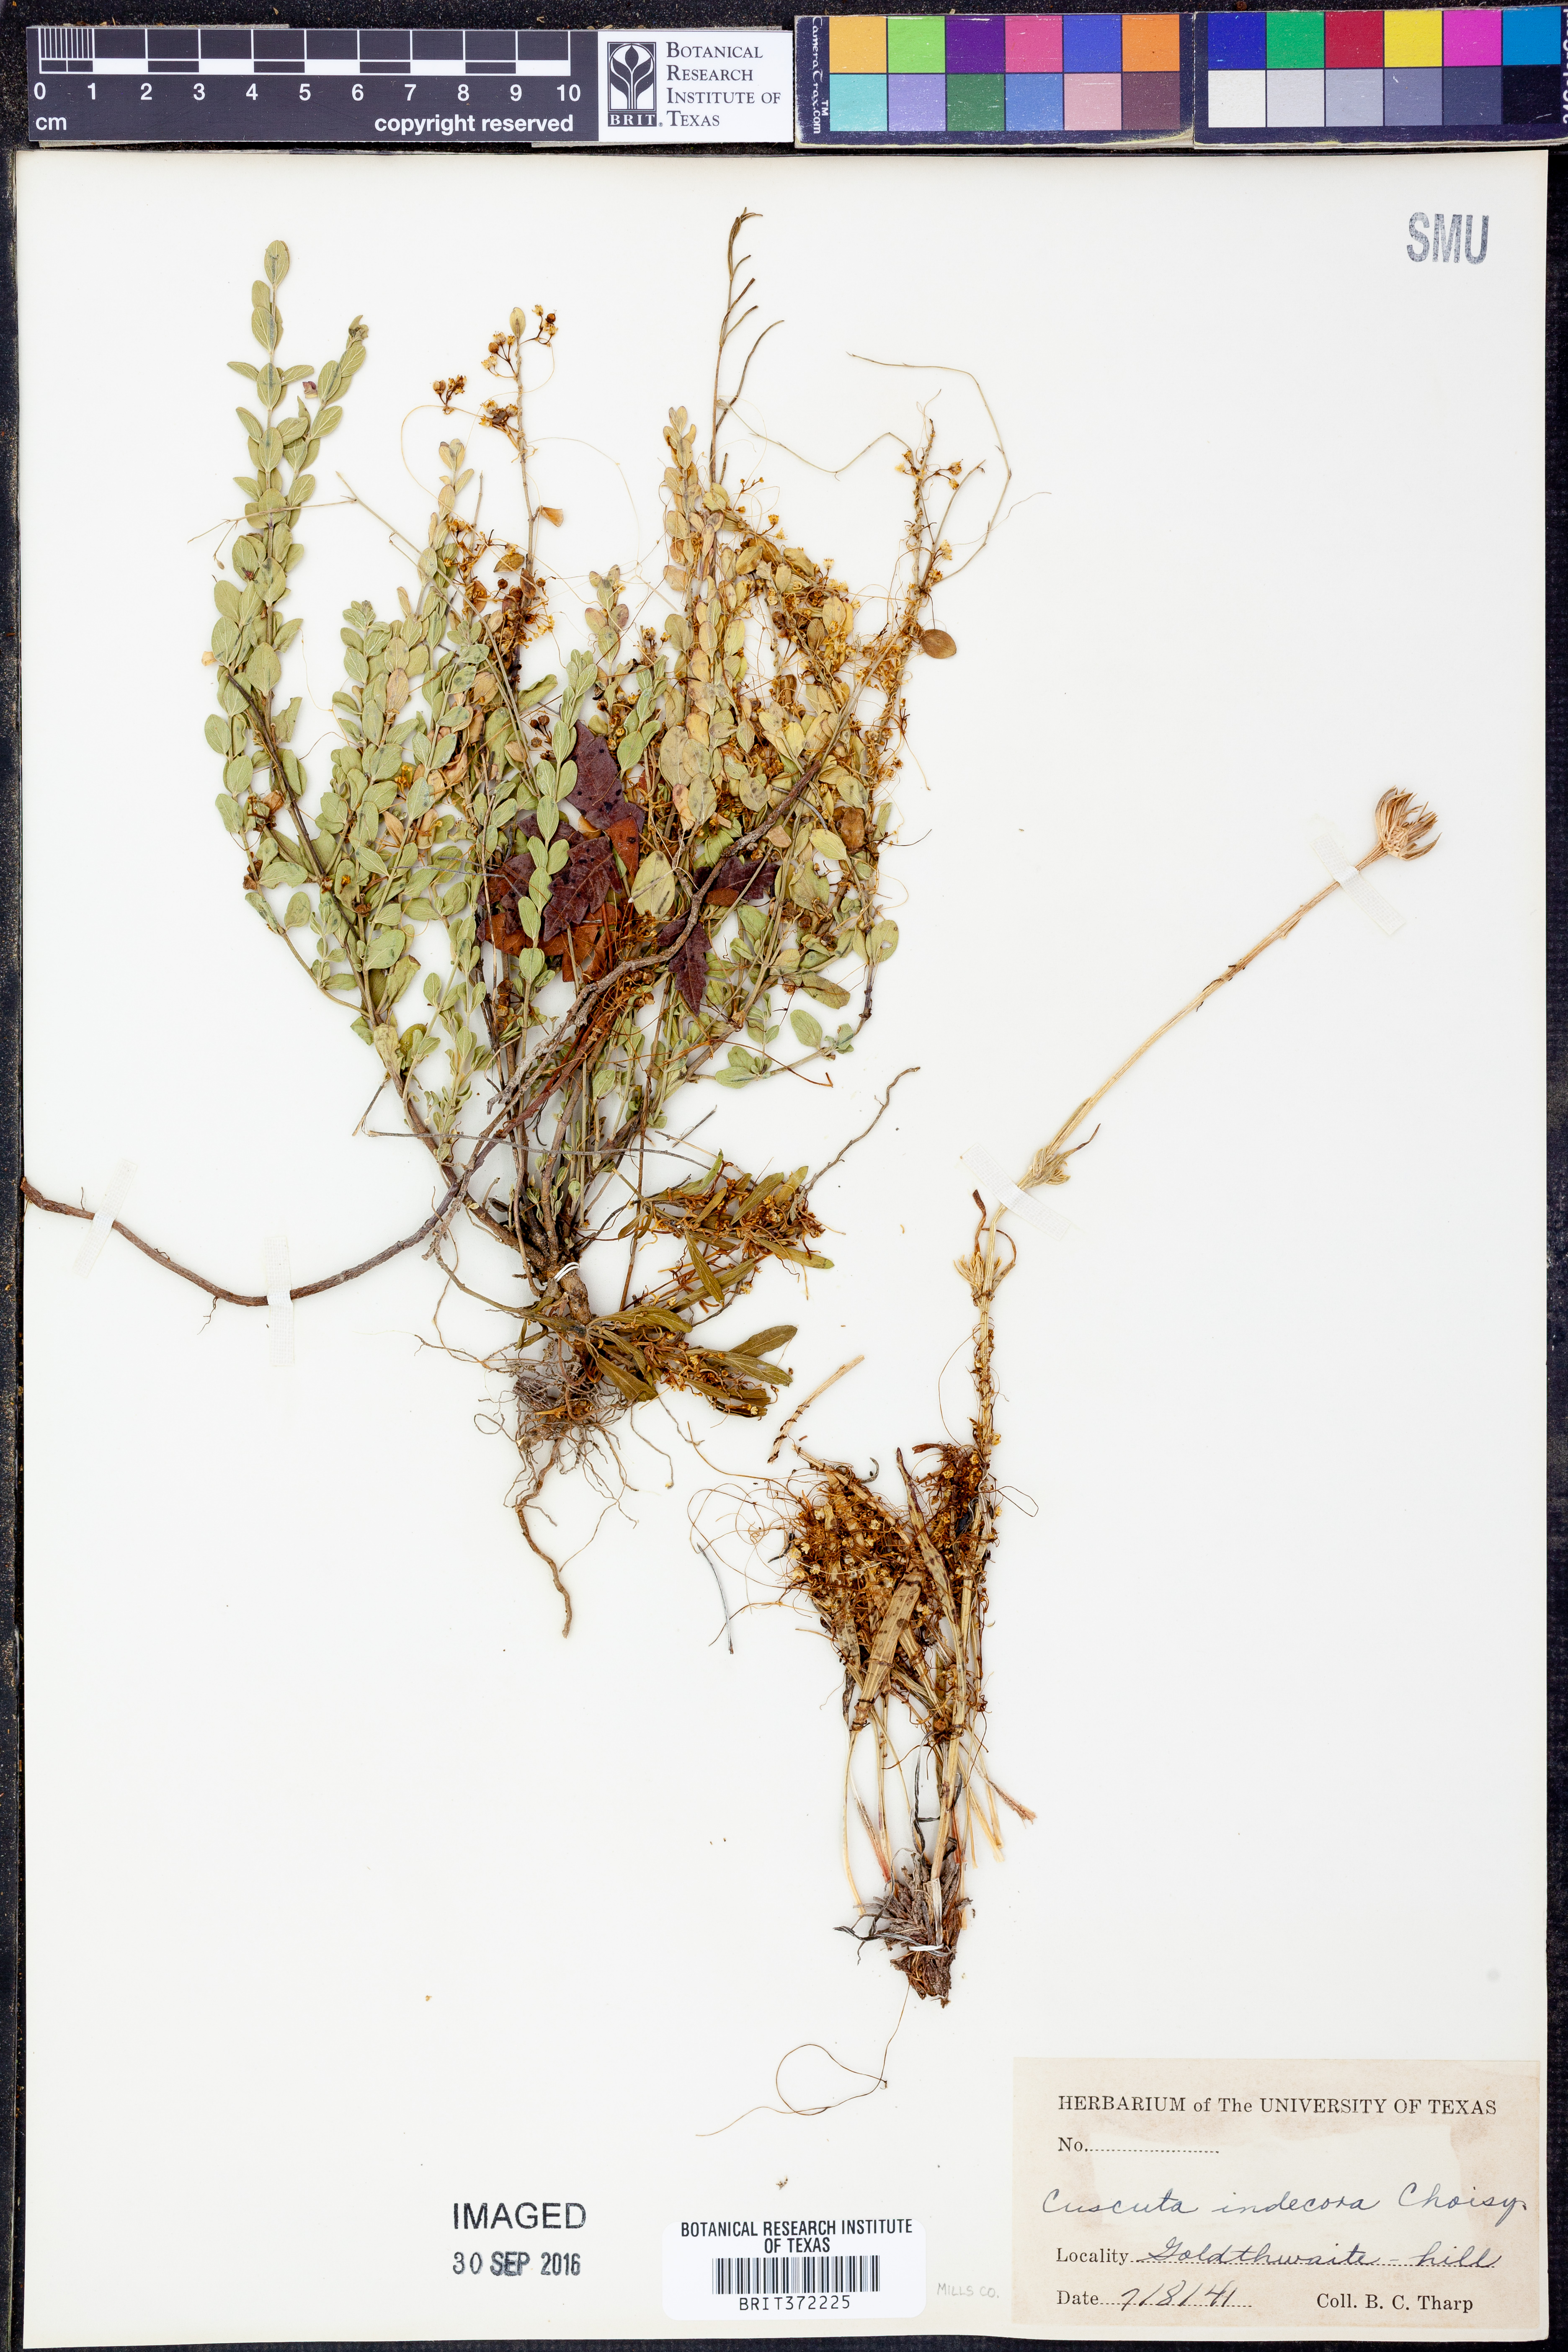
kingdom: Plantae
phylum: Tracheophyta
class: Magnoliopsida
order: Solanales
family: Convolvulaceae
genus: Cuscuta
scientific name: Cuscuta indecora
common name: Large-seed dodder
